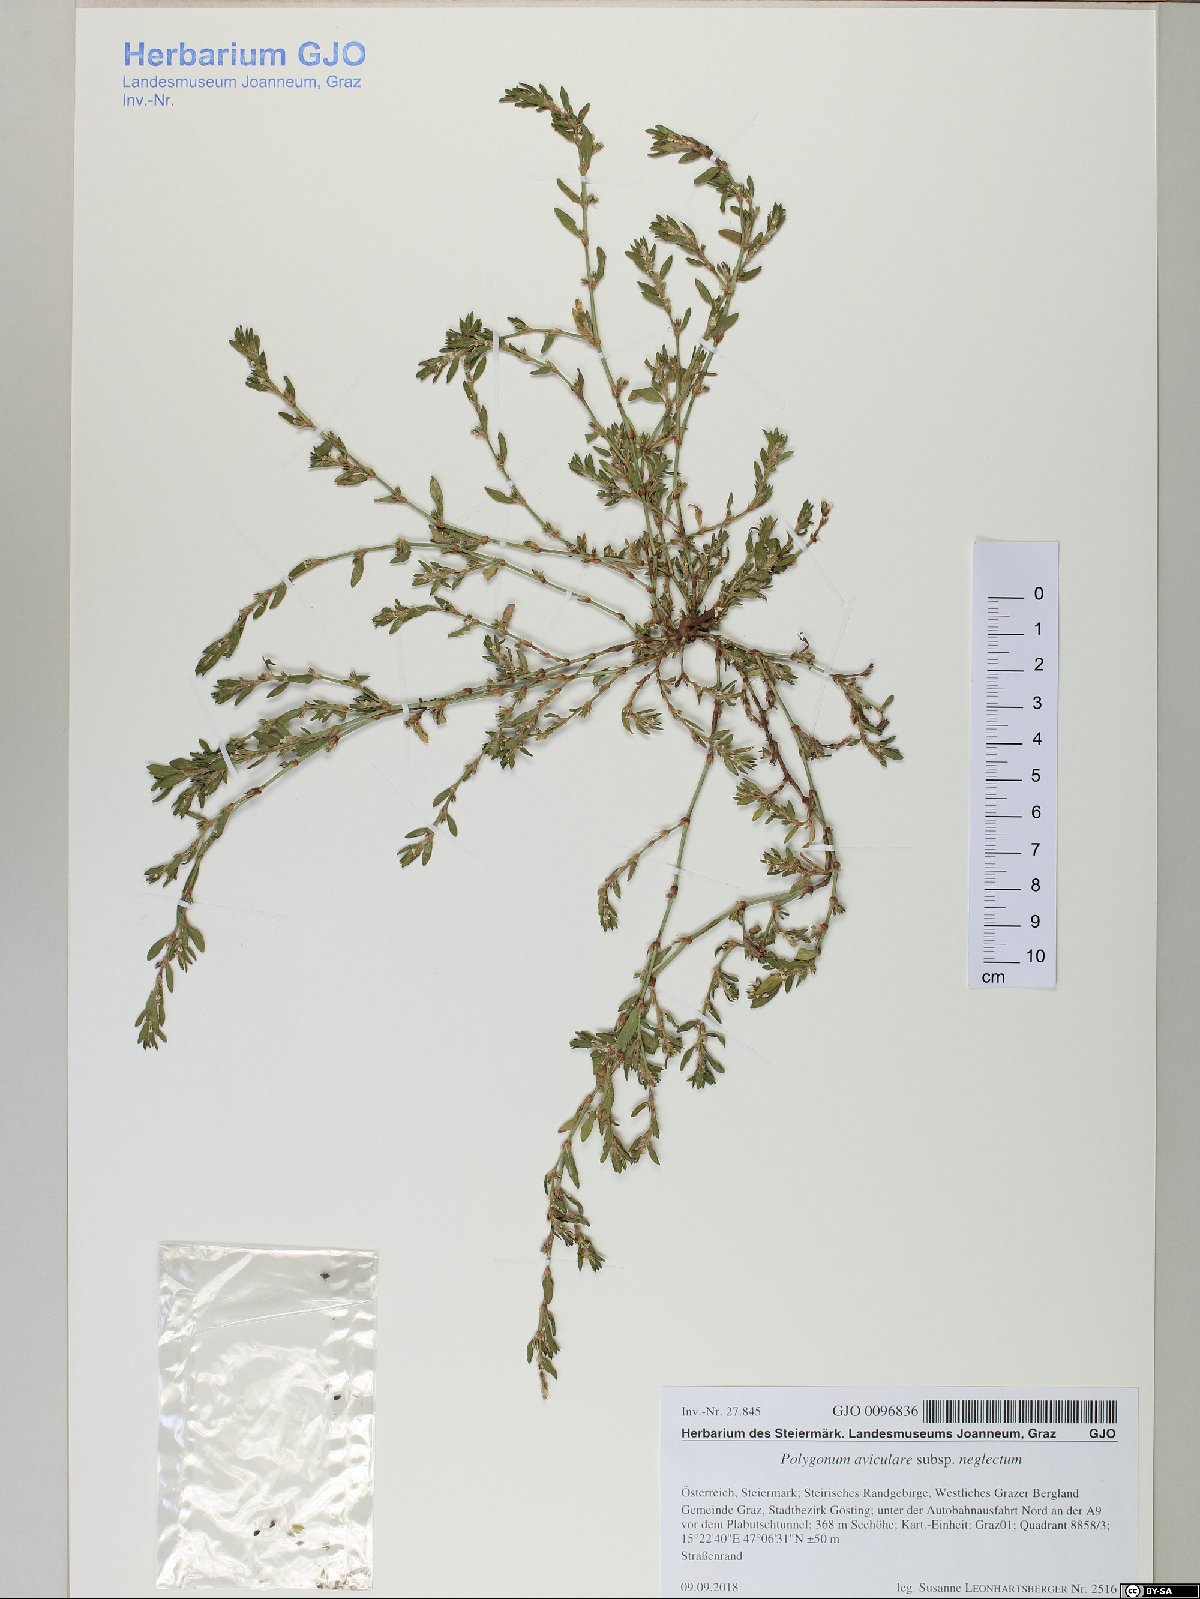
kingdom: Plantae
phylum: Tracheophyta
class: Magnoliopsida
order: Caryophyllales
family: Polygonaceae
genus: Polygonum
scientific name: Polygonum aviculare
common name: Prostrate knotweed
